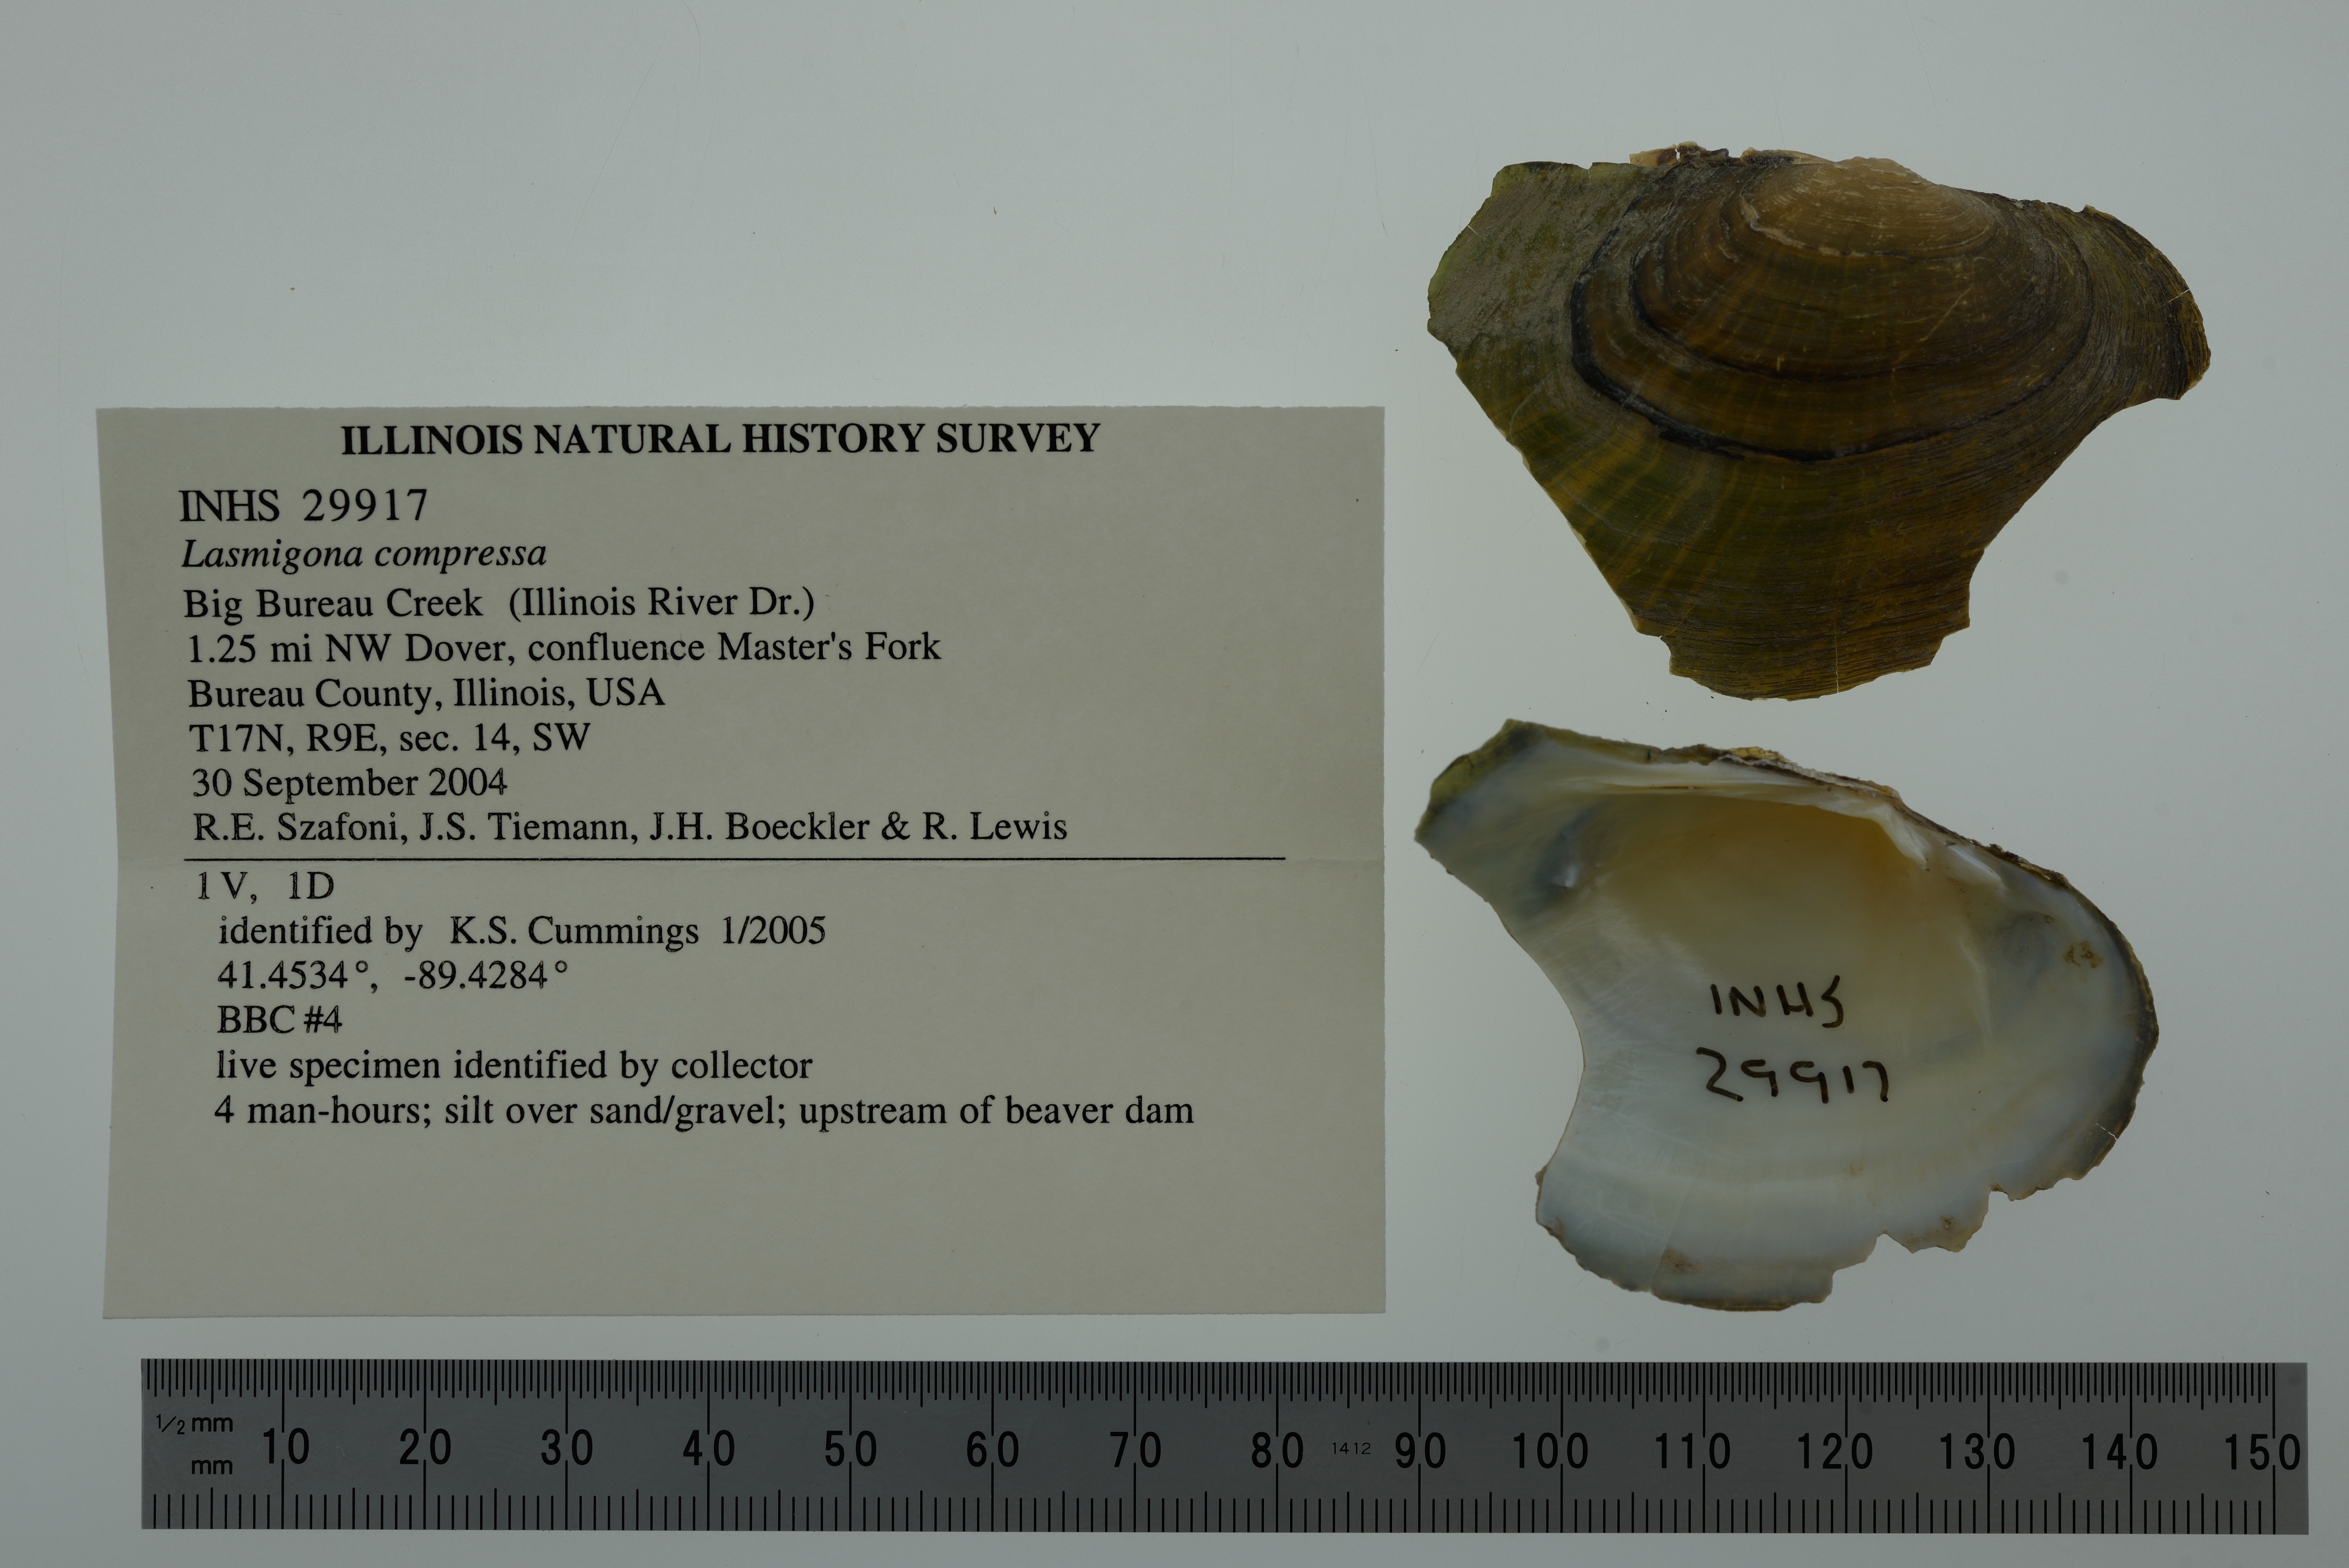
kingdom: Animalia
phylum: Mollusca
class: Bivalvia
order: Unionida
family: Unionidae
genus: Lasmigona
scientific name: Lasmigona compressa
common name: Creek heelsplitter
